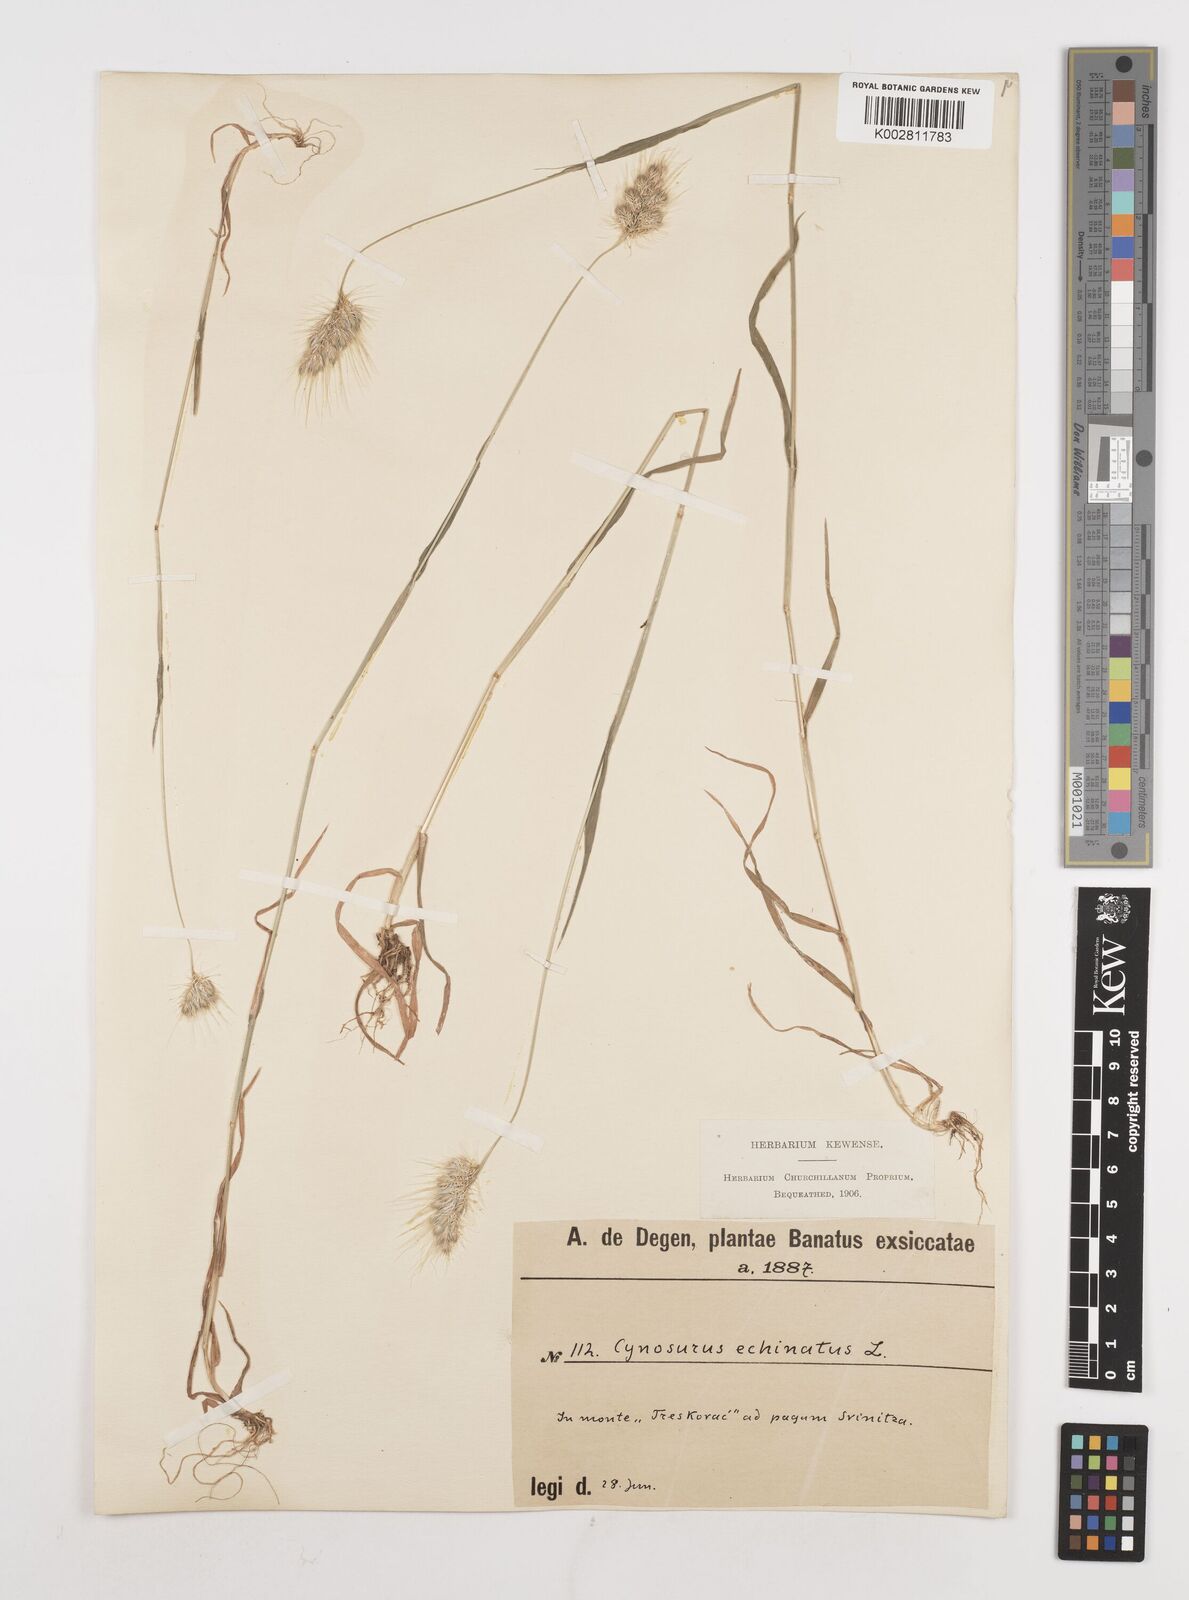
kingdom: Plantae
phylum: Tracheophyta
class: Liliopsida
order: Poales
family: Poaceae
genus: Cynosurus
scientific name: Cynosurus echinatus
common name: Rough dog's-tail
